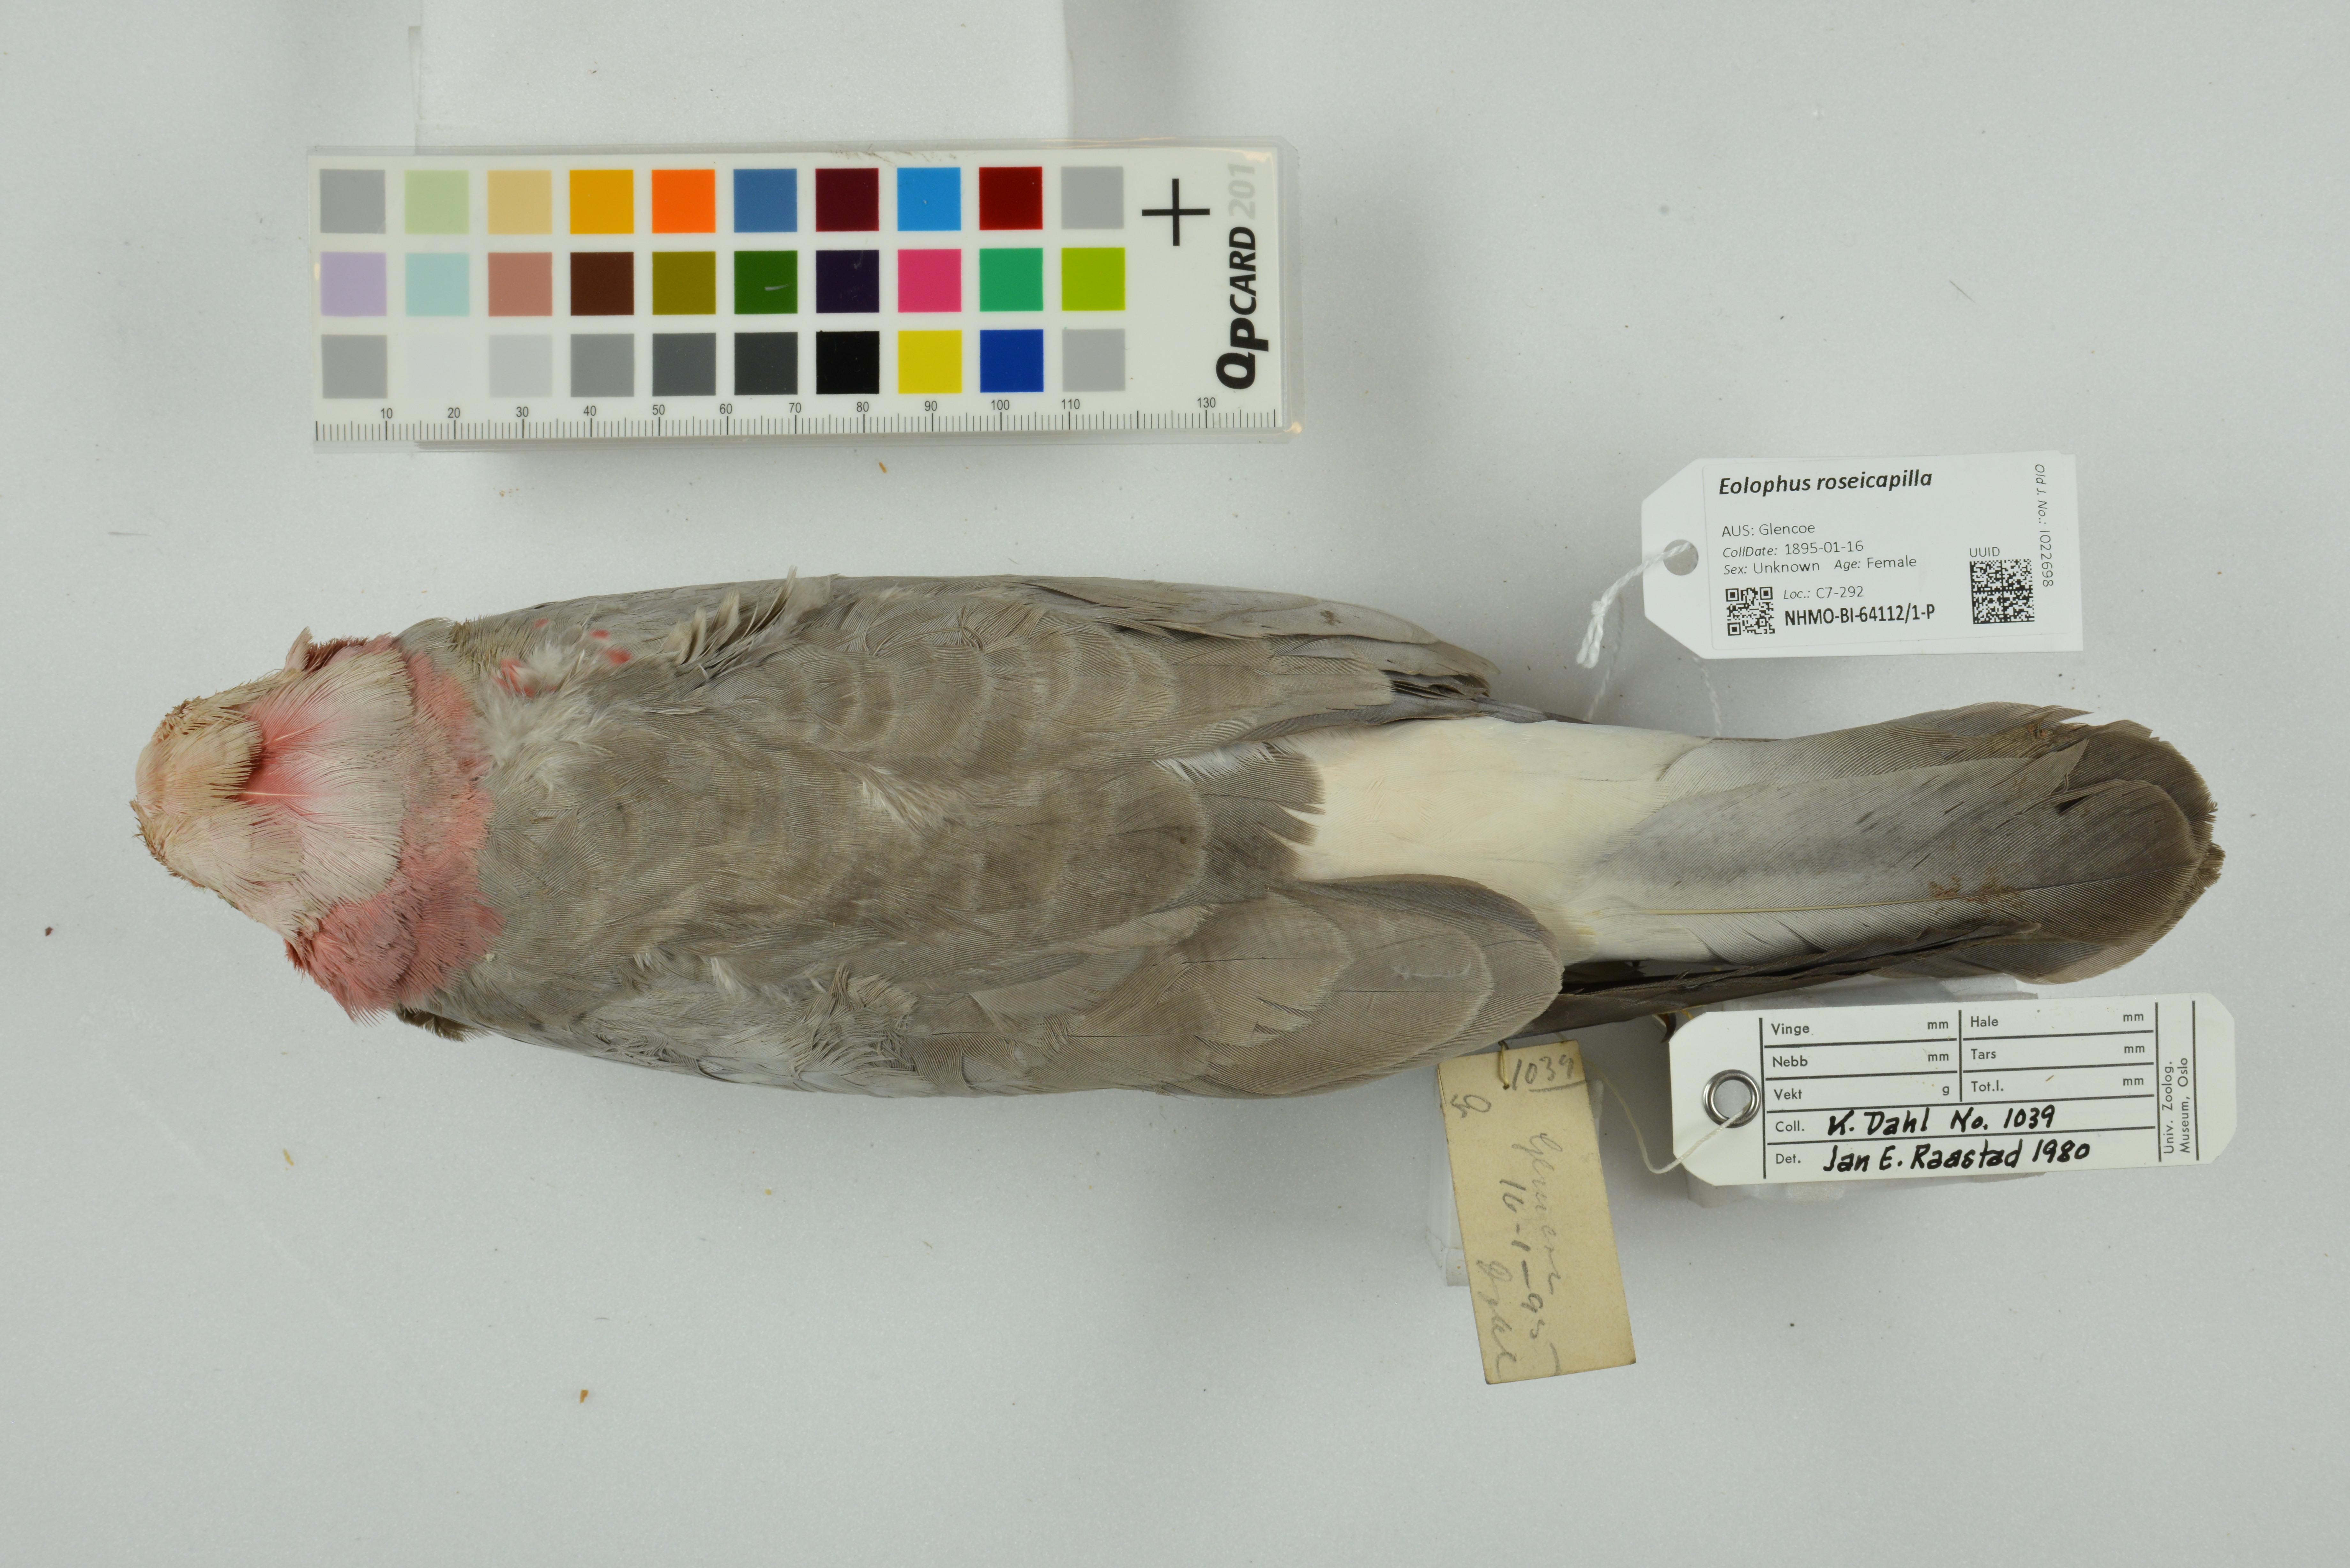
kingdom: Animalia
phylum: Chordata
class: Aves
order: Psittaciformes
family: Psittacidae
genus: Eolophus
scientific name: Eolophus roseicapilla
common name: Galah
